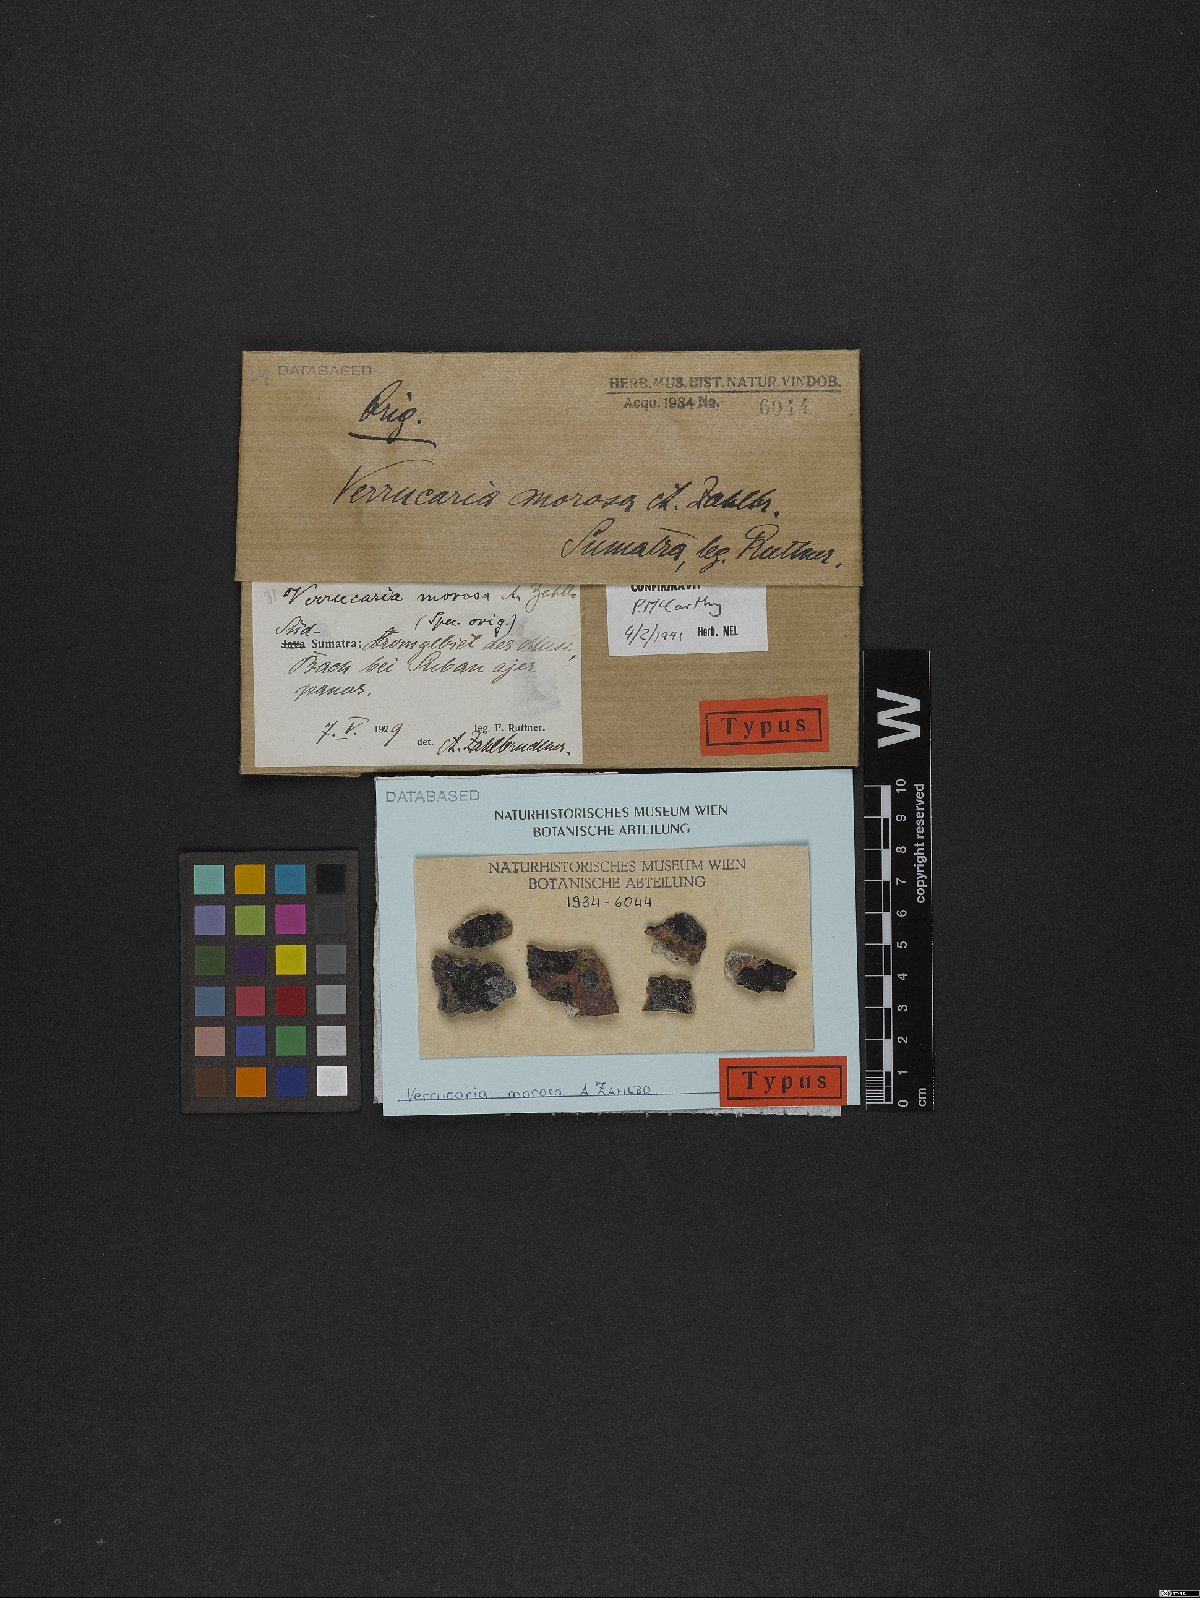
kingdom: Fungi
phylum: Ascomycota
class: Eurotiomycetes
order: Verrucariales
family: Verrucariaceae
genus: Verrucaria
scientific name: Verrucaria murorum
